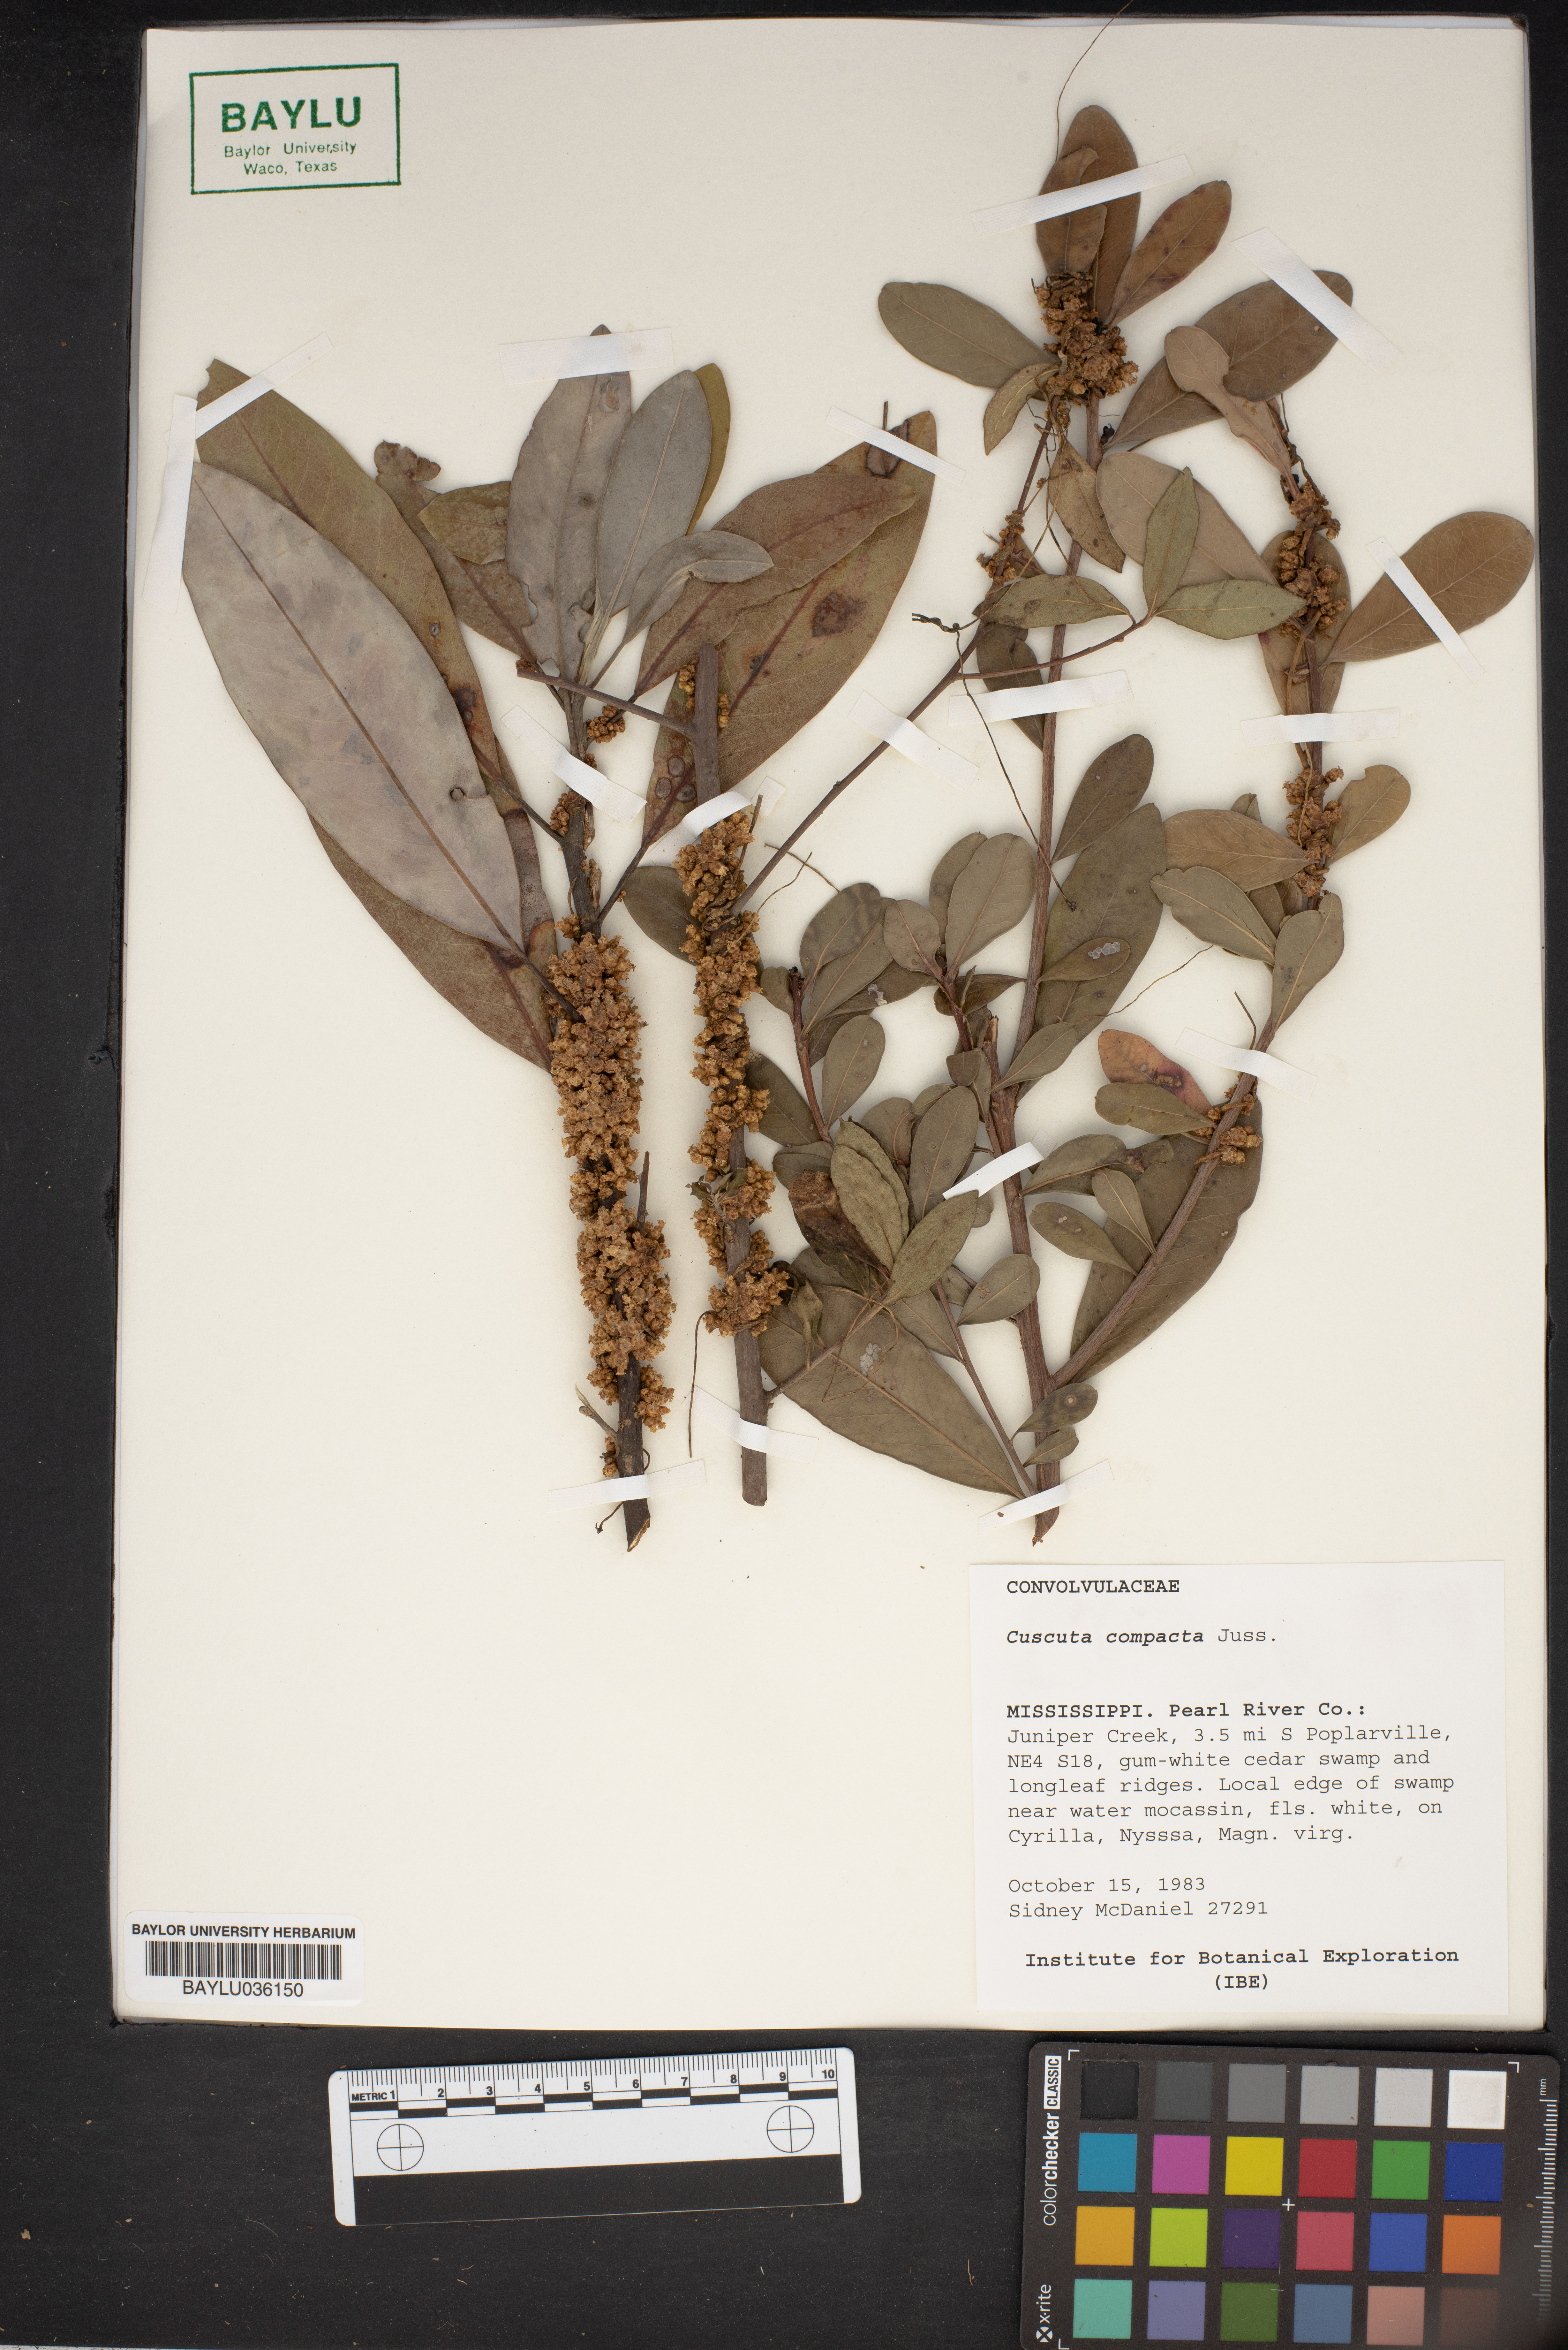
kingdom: Plantae
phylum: Tracheophyta
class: Magnoliopsida
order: Solanales
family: Convolvulaceae
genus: Cuscuta
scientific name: Cuscuta compacta
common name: Compact dodder
